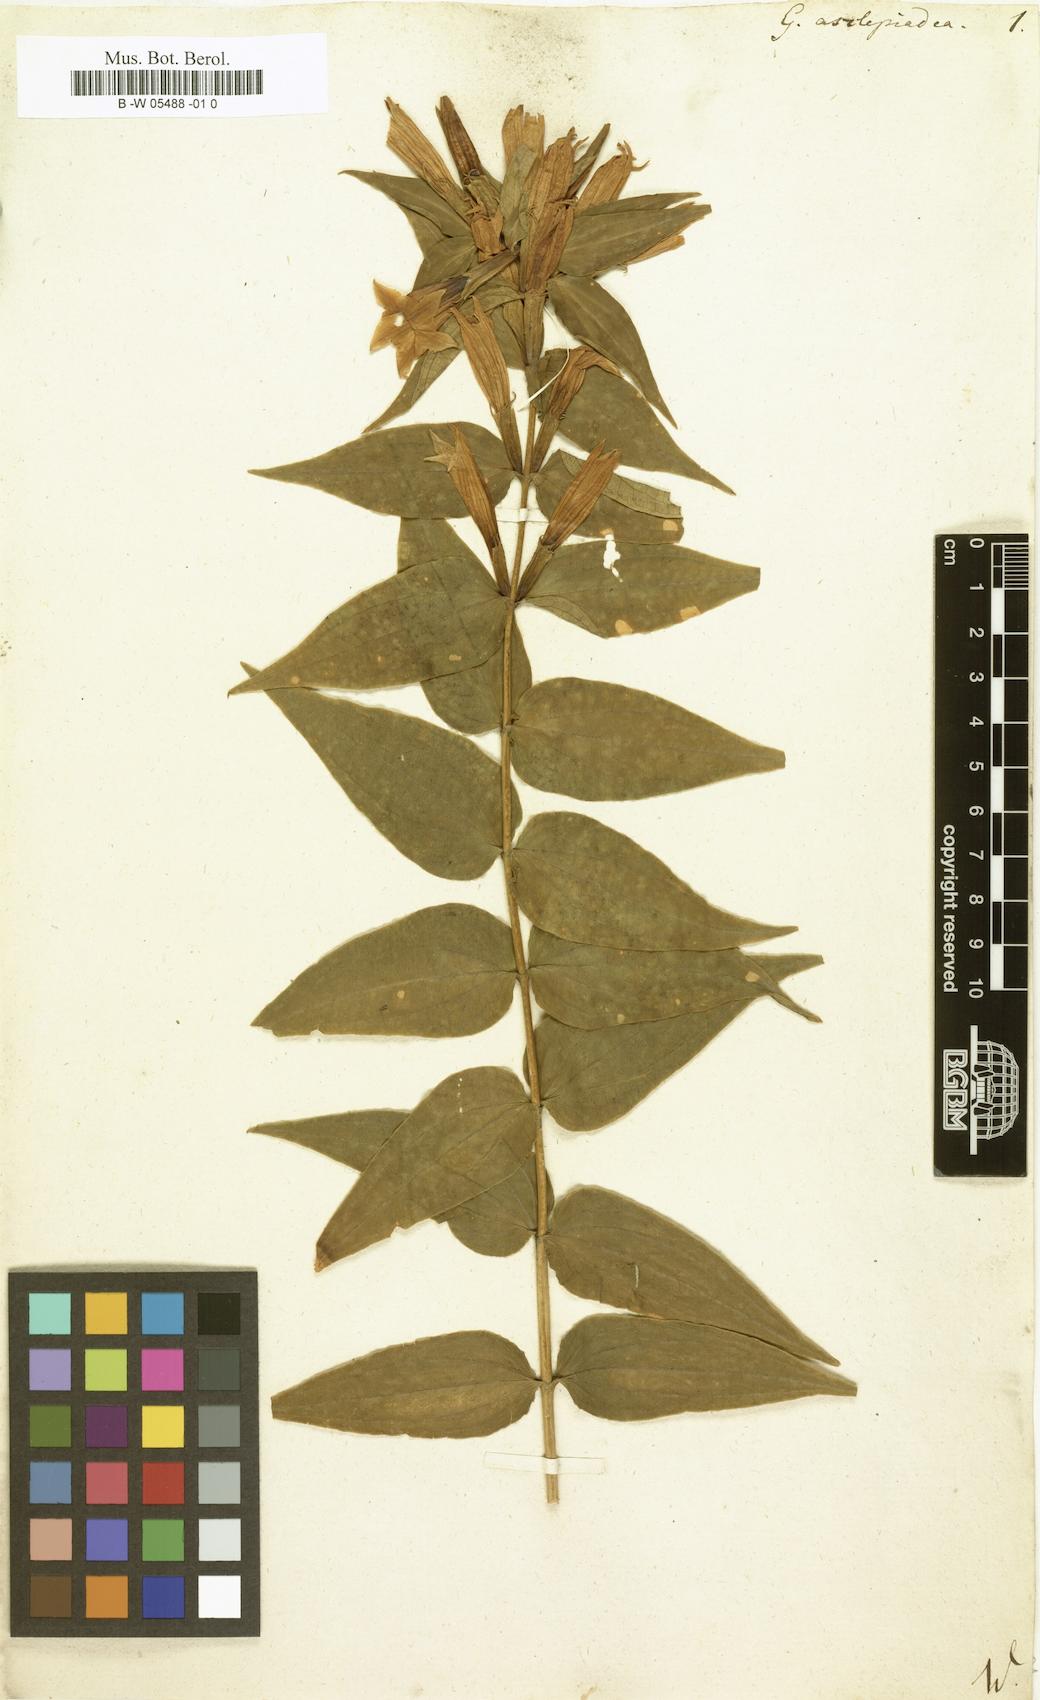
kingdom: Plantae
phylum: Tracheophyta
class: Magnoliopsida
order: Gentianales
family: Gentianaceae
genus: Gentiana
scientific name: Gentiana asclepiadea
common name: Willow gentian
